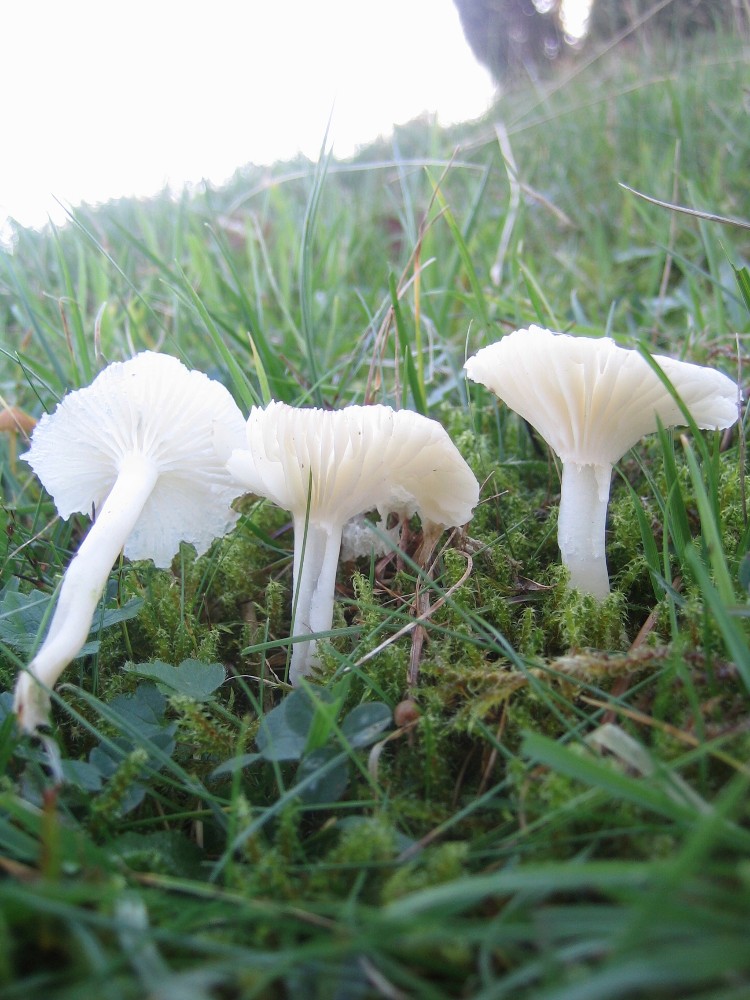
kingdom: Fungi
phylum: Basidiomycota
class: Agaricomycetes
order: Agaricales
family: Hygrophoraceae
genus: Cuphophyllus
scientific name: Cuphophyllus virgineus
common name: snehvid vokshat
